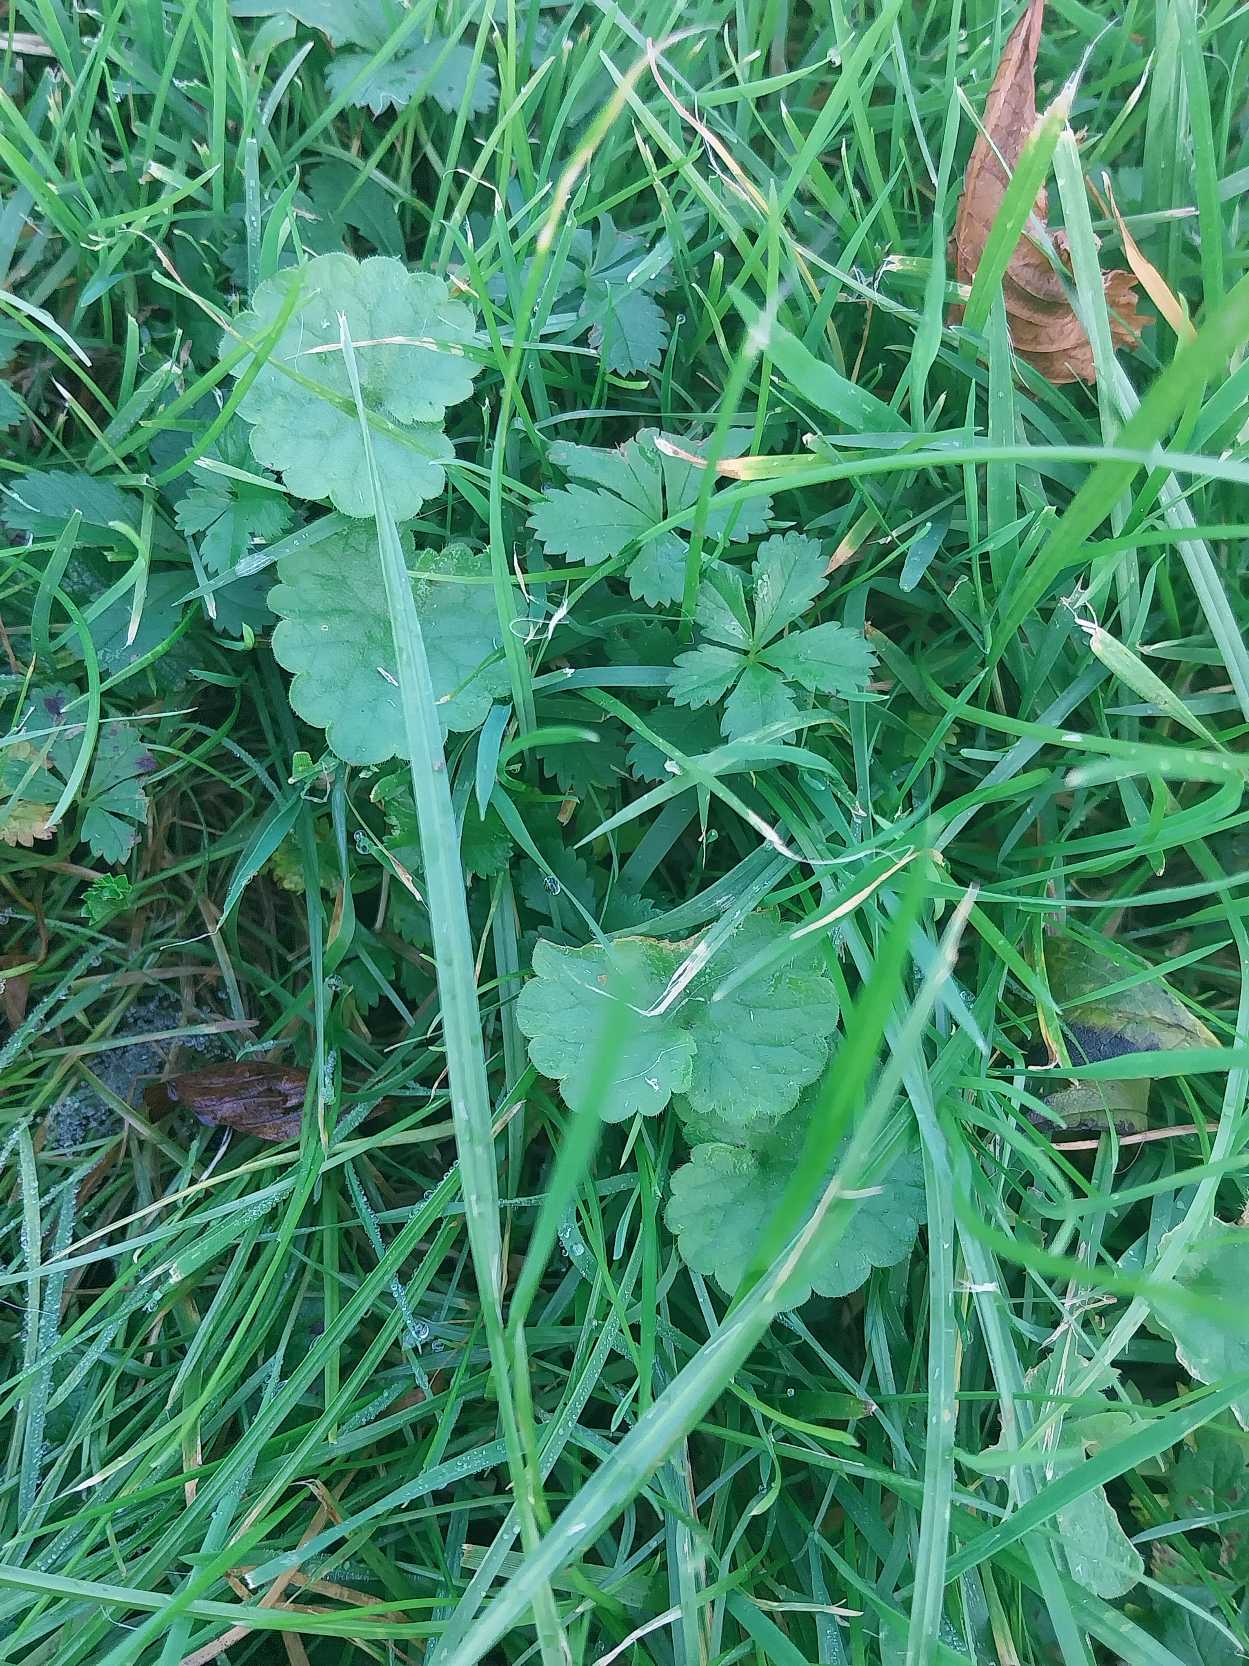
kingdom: Plantae
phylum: Tracheophyta
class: Magnoliopsida
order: Lamiales
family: Lamiaceae
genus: Glechoma
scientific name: Glechoma hederacea
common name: Korsknap
